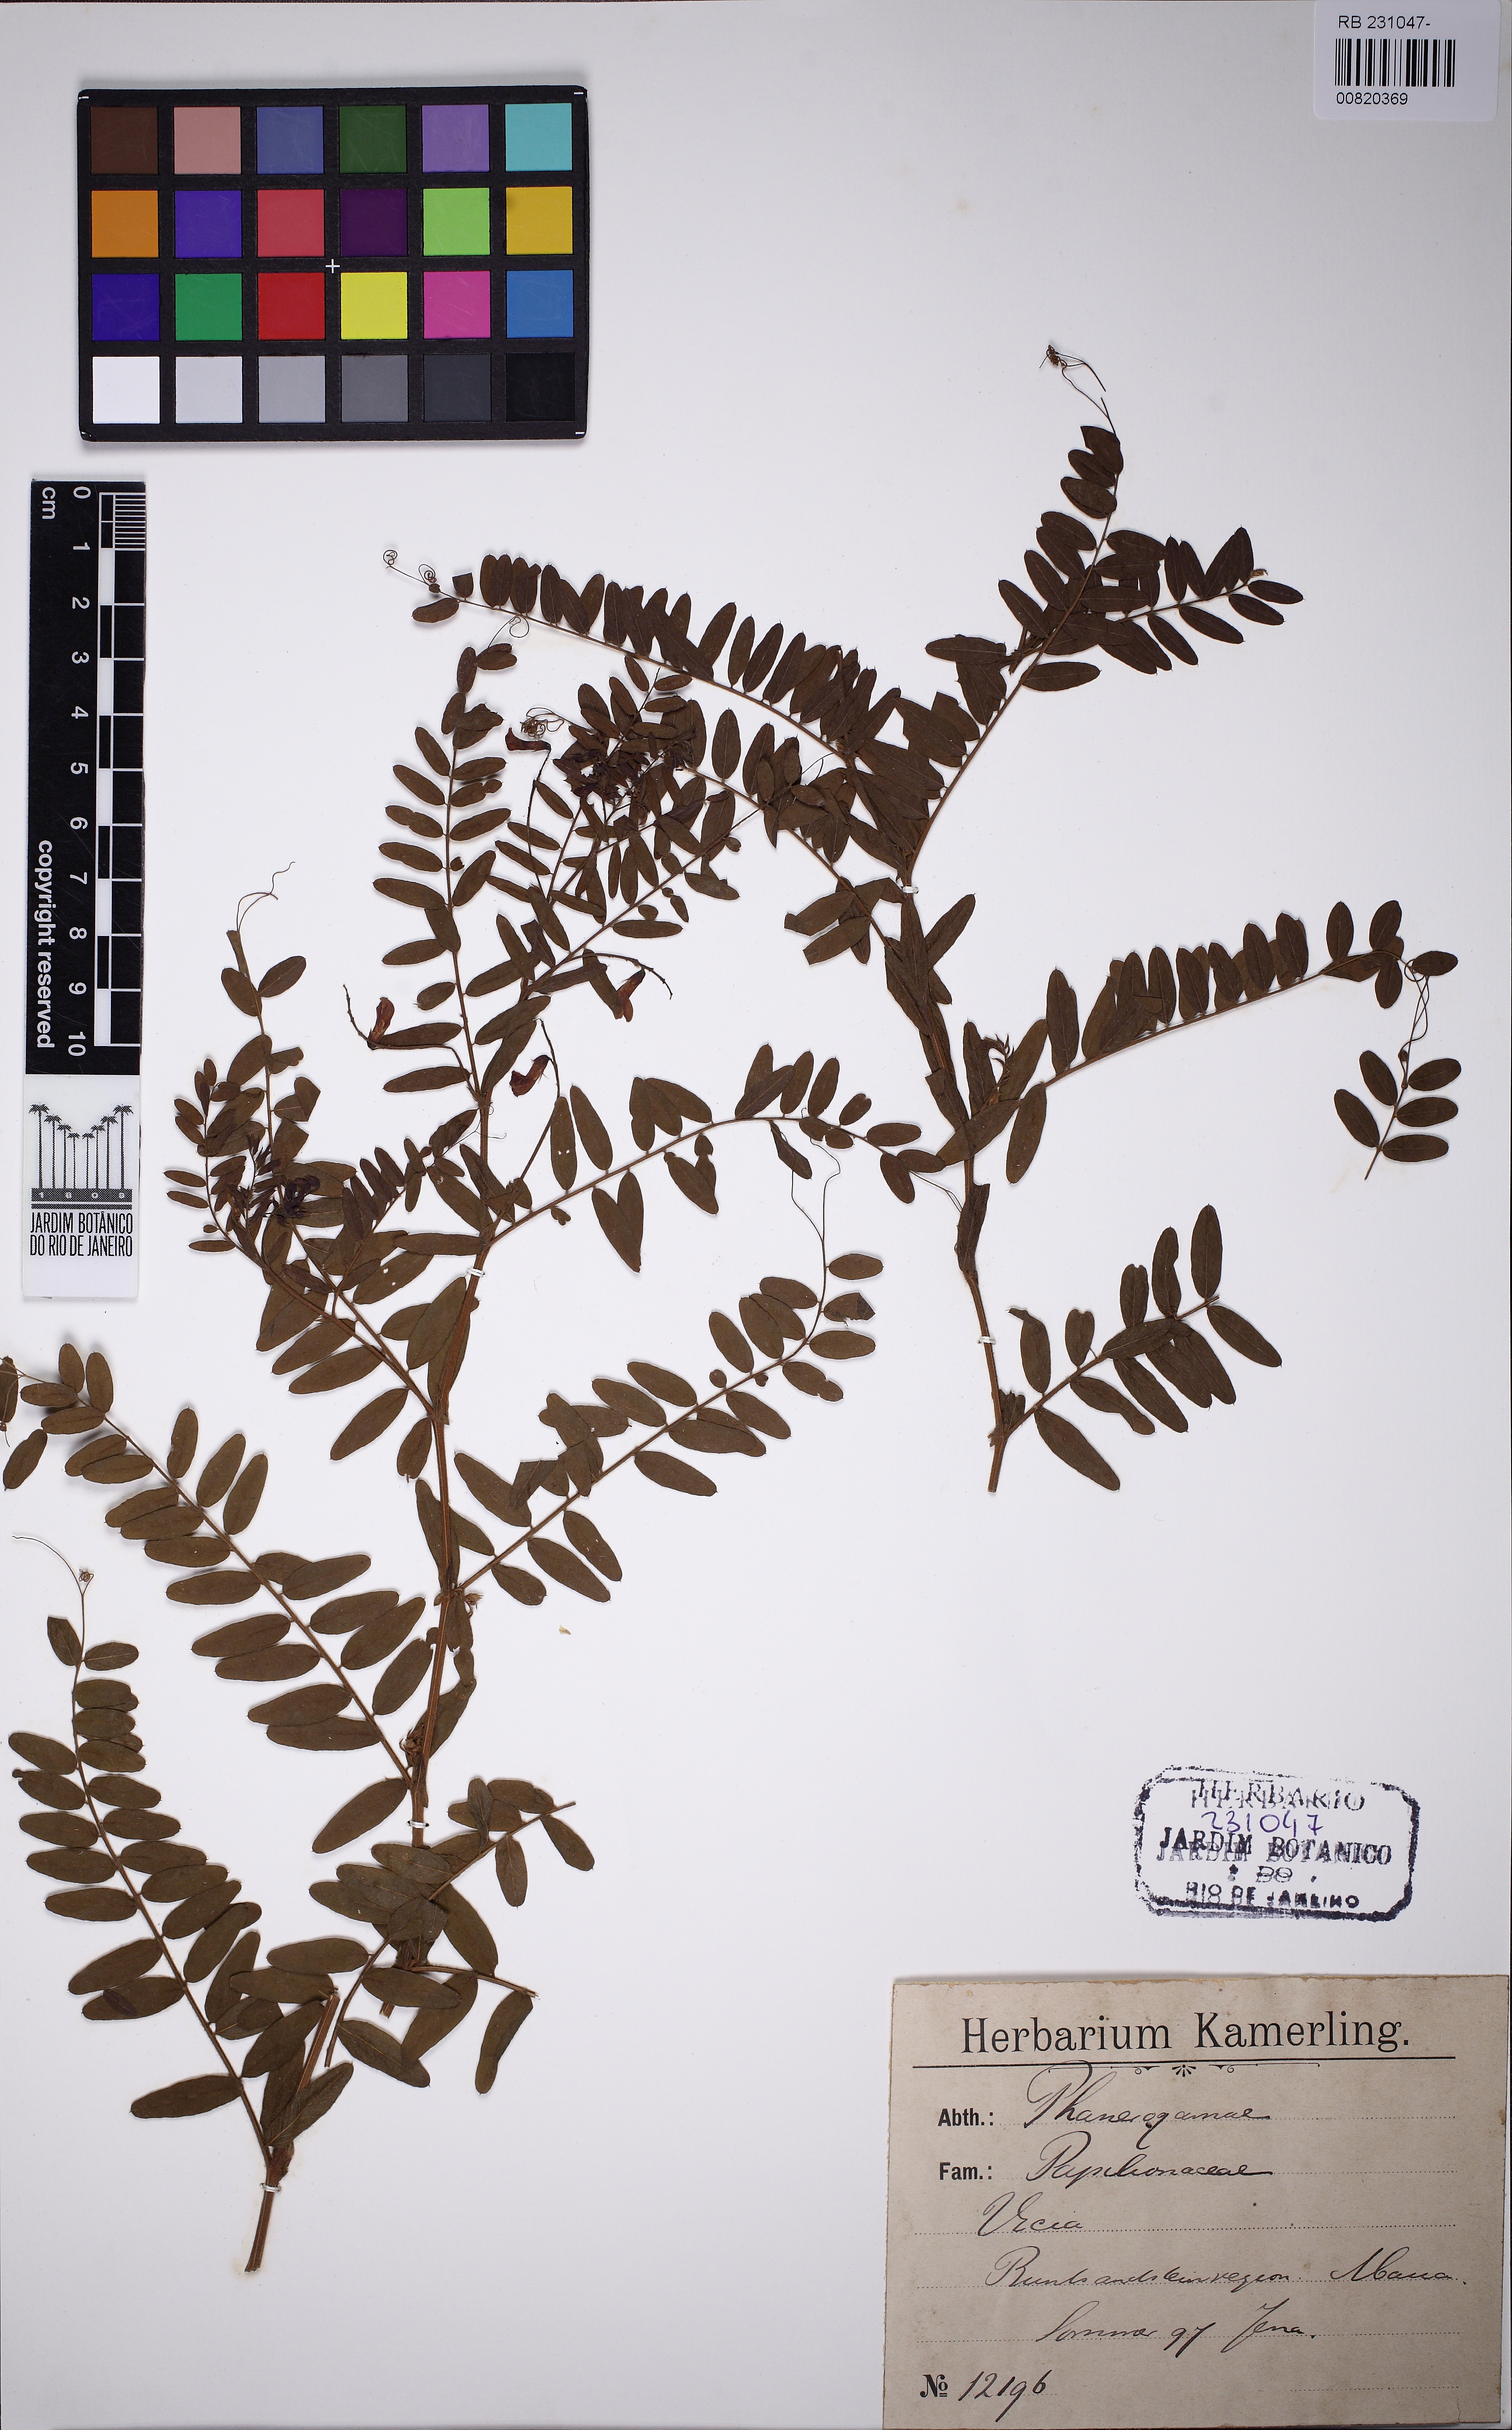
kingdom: Plantae
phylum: Tracheophyta
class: Magnoliopsida
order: Fabales
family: Fabaceae
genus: Vicia
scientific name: Vicia
